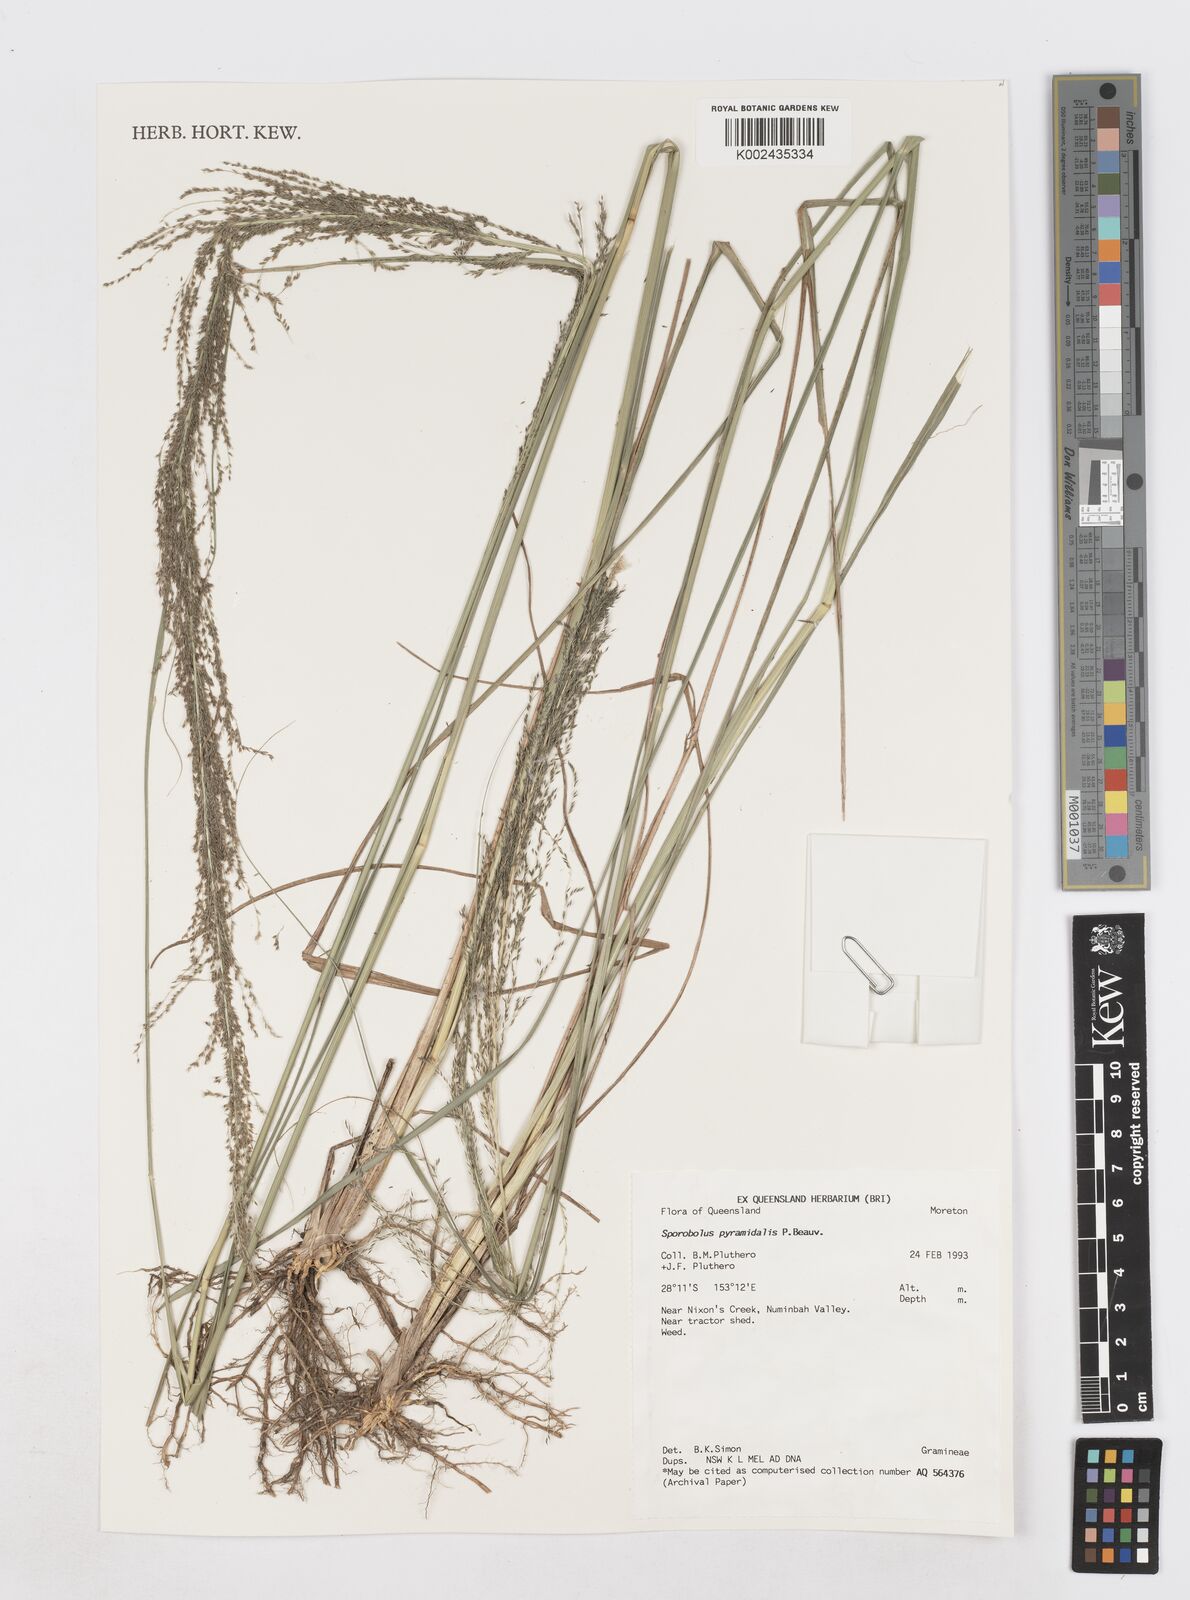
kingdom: Plantae
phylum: Tracheophyta
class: Liliopsida
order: Poales
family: Poaceae
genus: Sporobolus
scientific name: Sporobolus pyramidalis
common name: West indian dropseed
